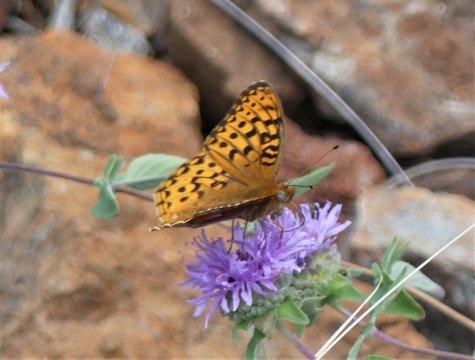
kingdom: Animalia
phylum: Arthropoda
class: Insecta
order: Lepidoptera
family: Nymphalidae
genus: Speyeria
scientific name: Speyeria egleis
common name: Great Basin Fritillary
